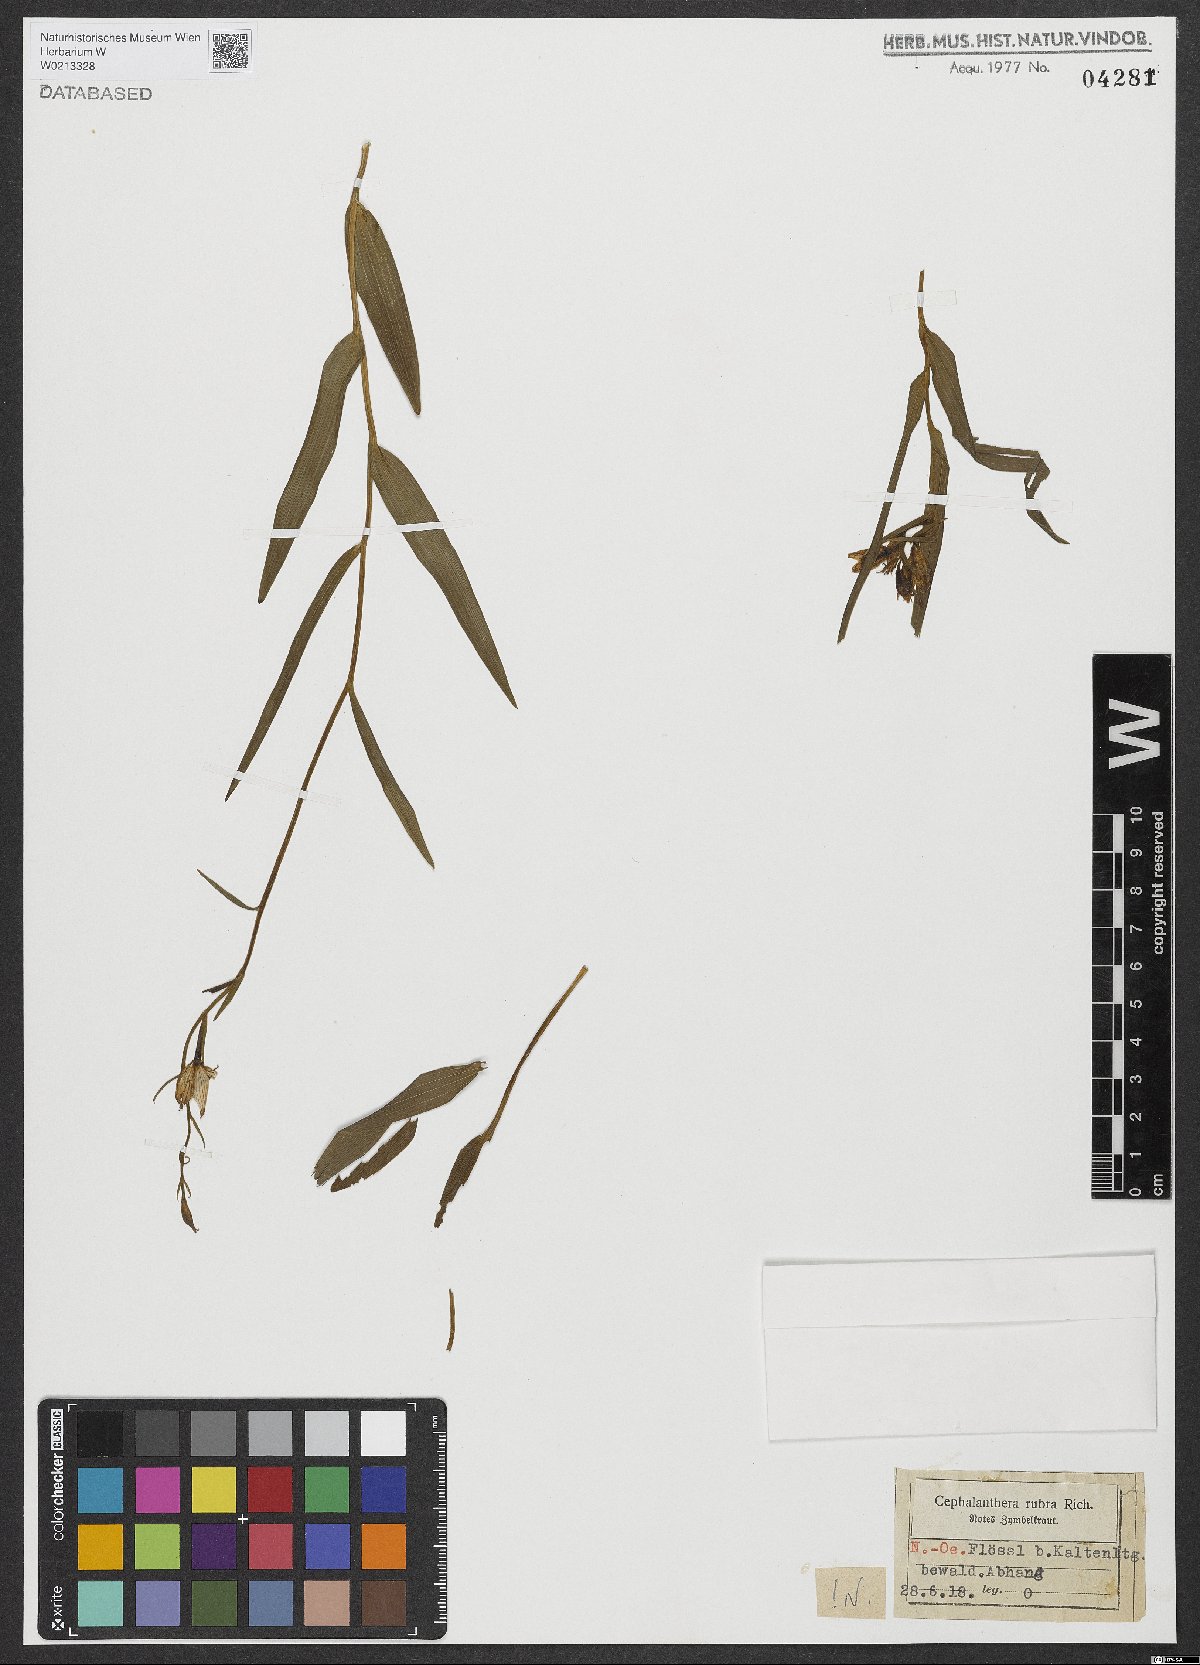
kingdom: Plantae
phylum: Tracheophyta
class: Liliopsida
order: Asparagales
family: Orchidaceae
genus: Cephalanthera
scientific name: Cephalanthera rubra
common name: Red helleborine
